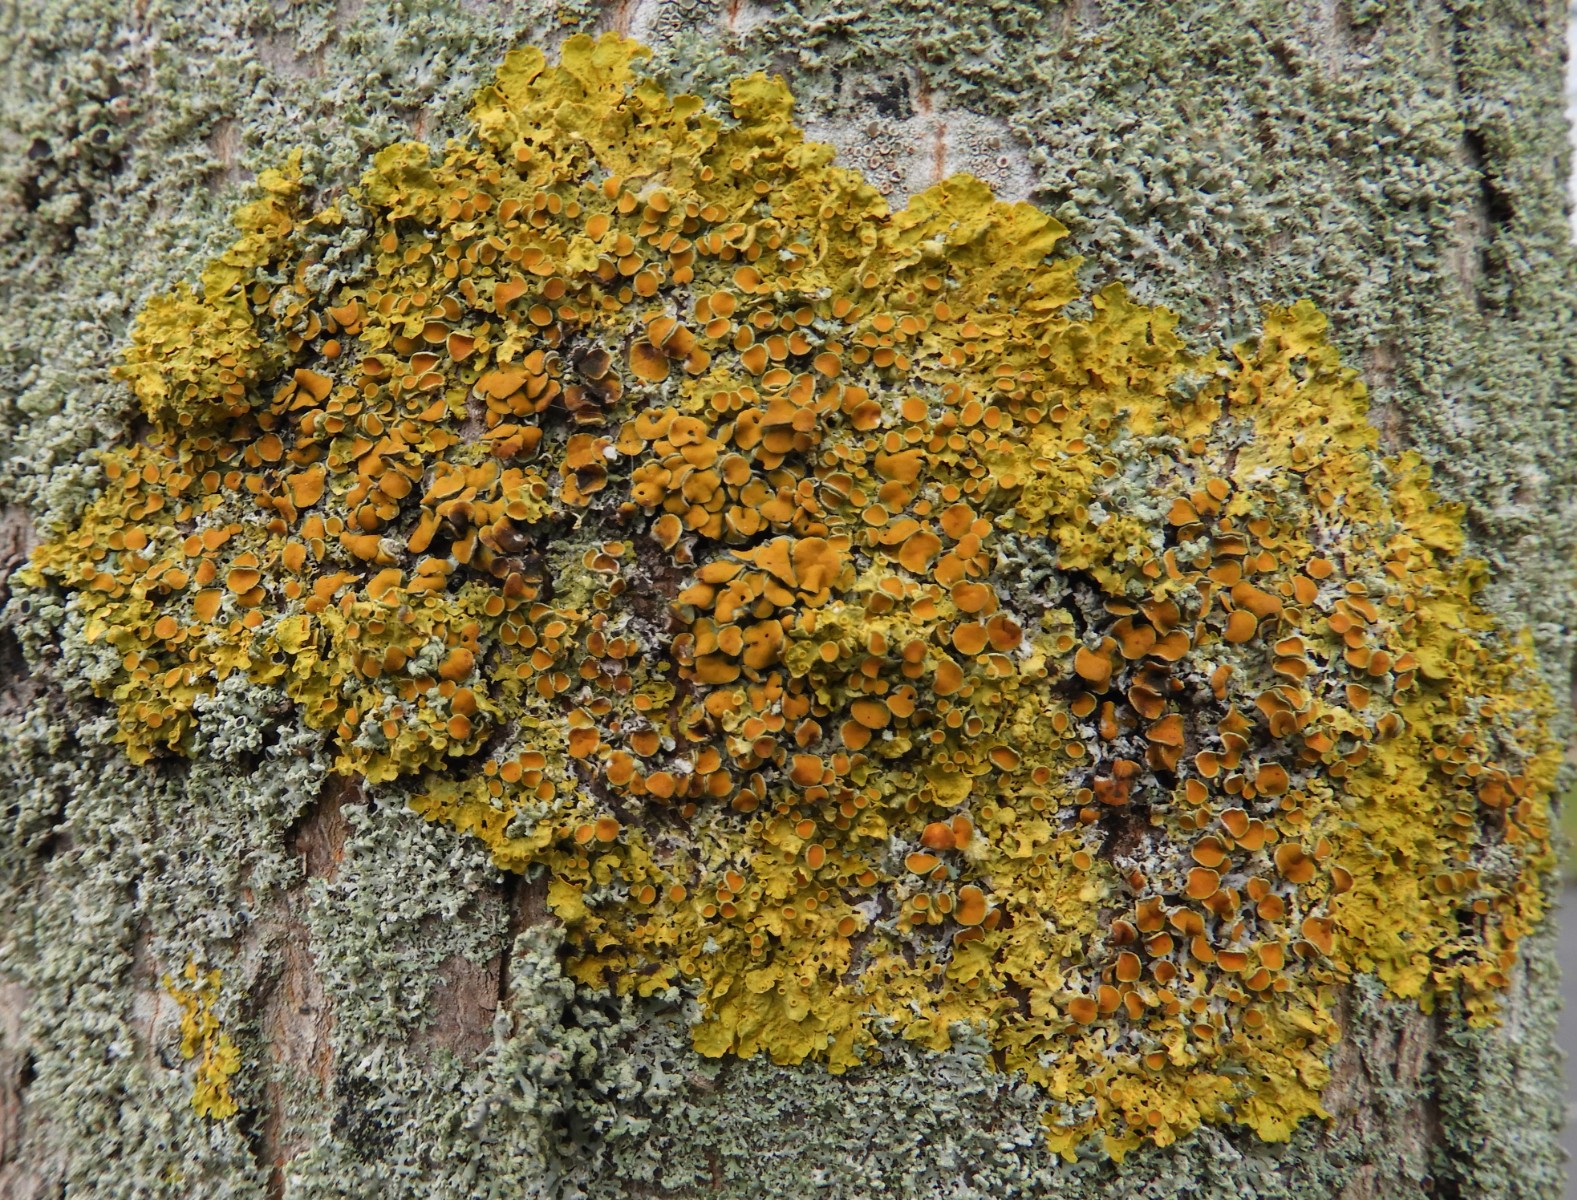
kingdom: Fungi
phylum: Ascomycota
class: Lecanoromycetes
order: Teloschistales
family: Teloschistaceae
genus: Xanthoria
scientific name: Xanthoria parietina
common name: almindelig væggelav
